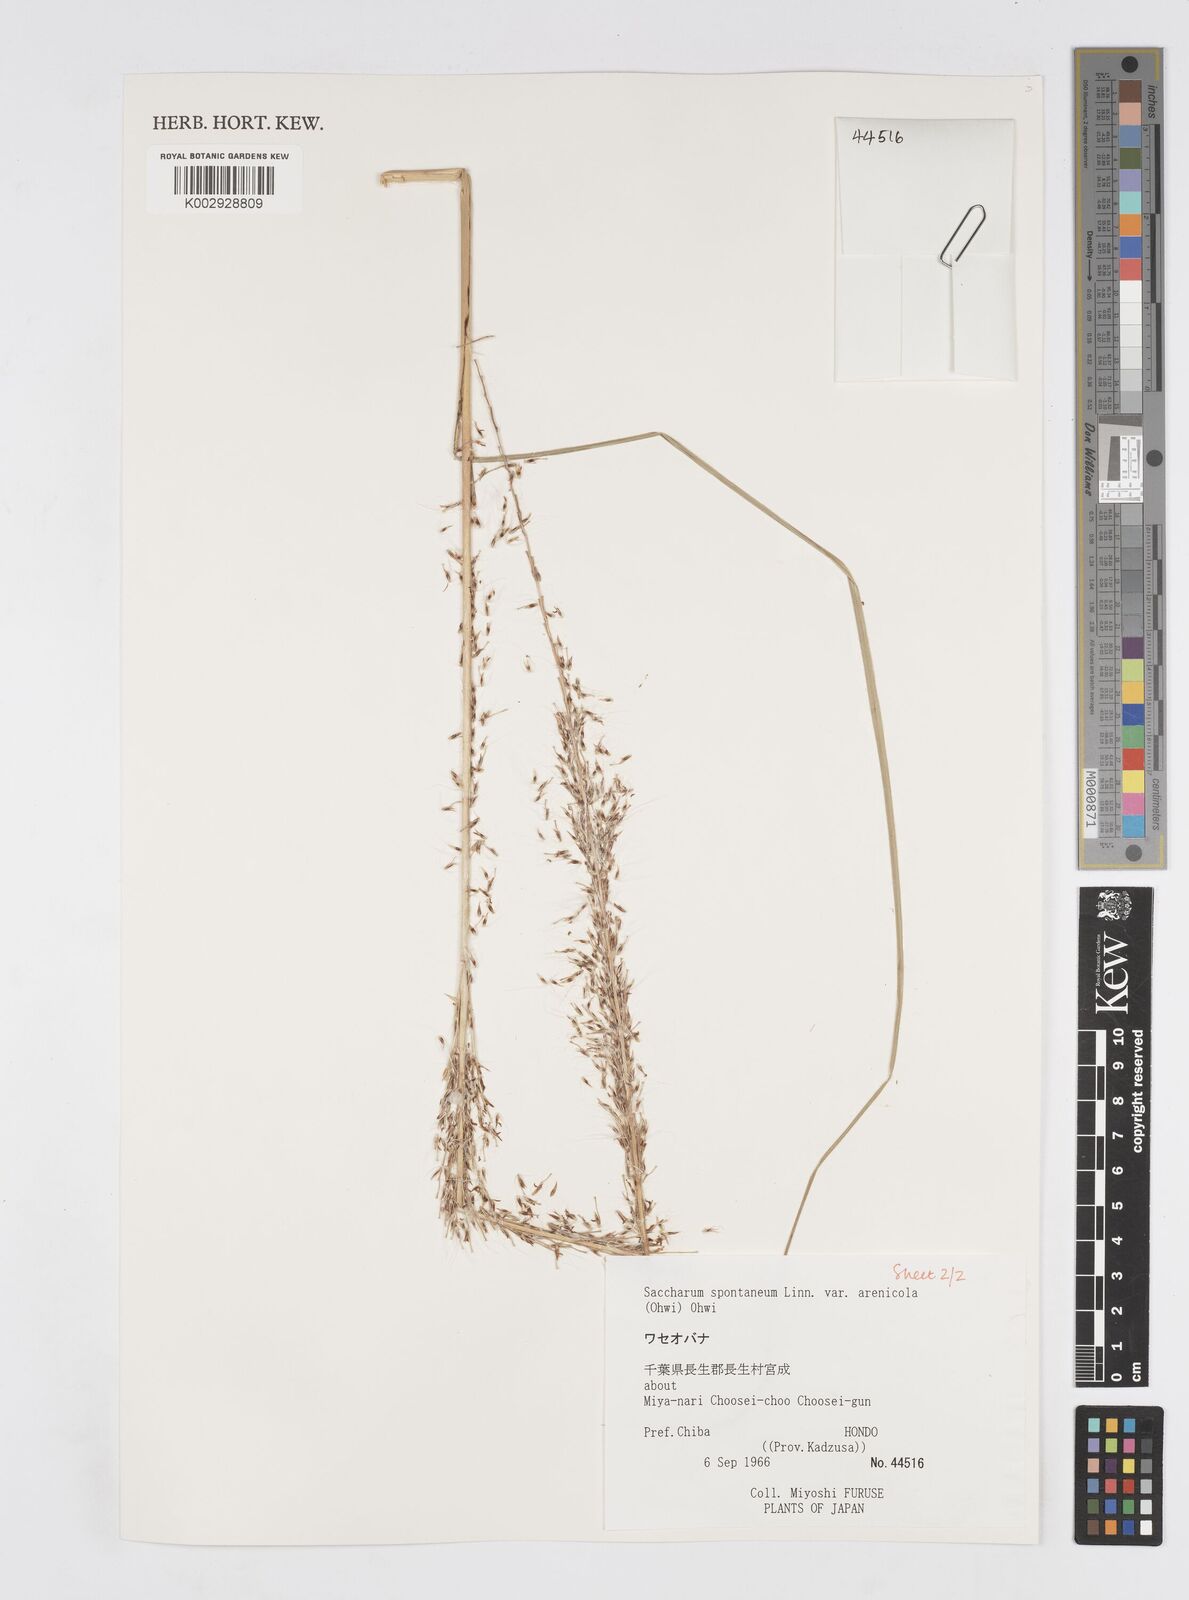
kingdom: Plantae
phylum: Tracheophyta
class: Liliopsida
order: Poales
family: Poaceae
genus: Saccharum
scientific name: Saccharum spontaneum
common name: Wild sugarcane
